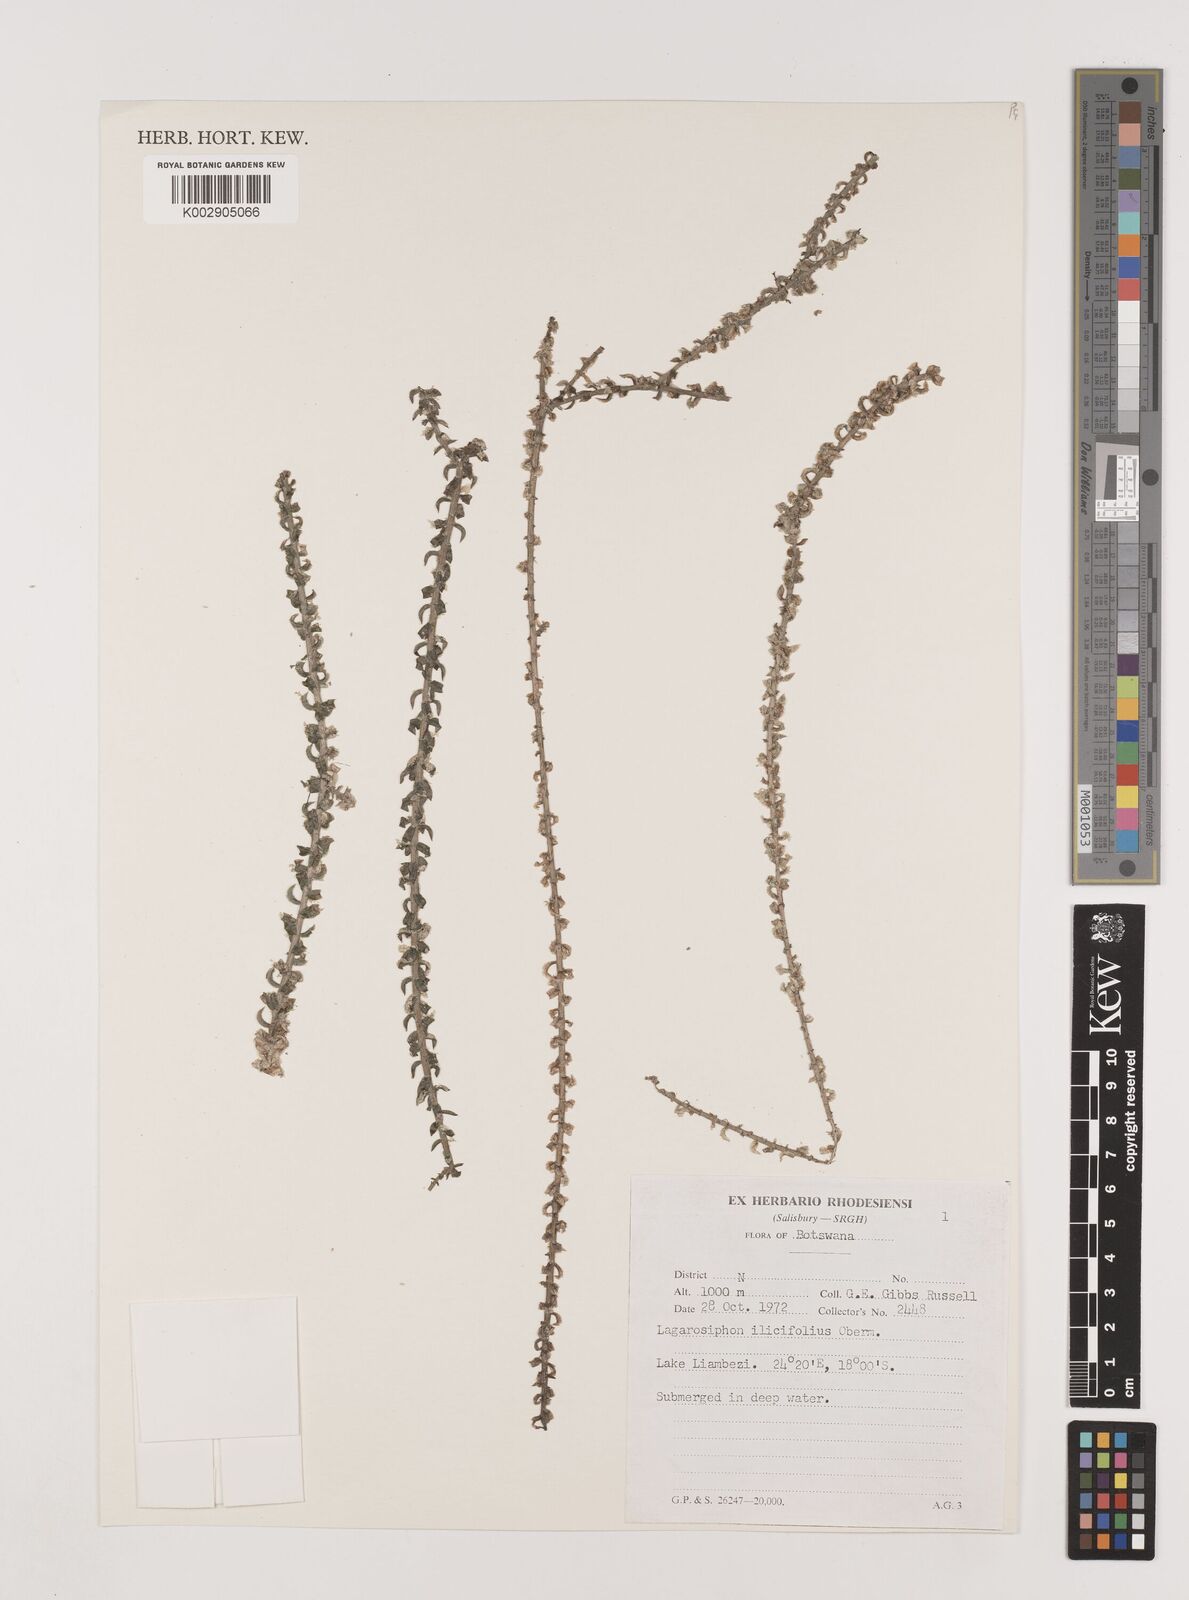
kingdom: Plantae
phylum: Tracheophyta
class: Liliopsida
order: Alismatales
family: Hydrocharitaceae
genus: Lagarosiphon
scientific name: Lagarosiphon ilicifolius
